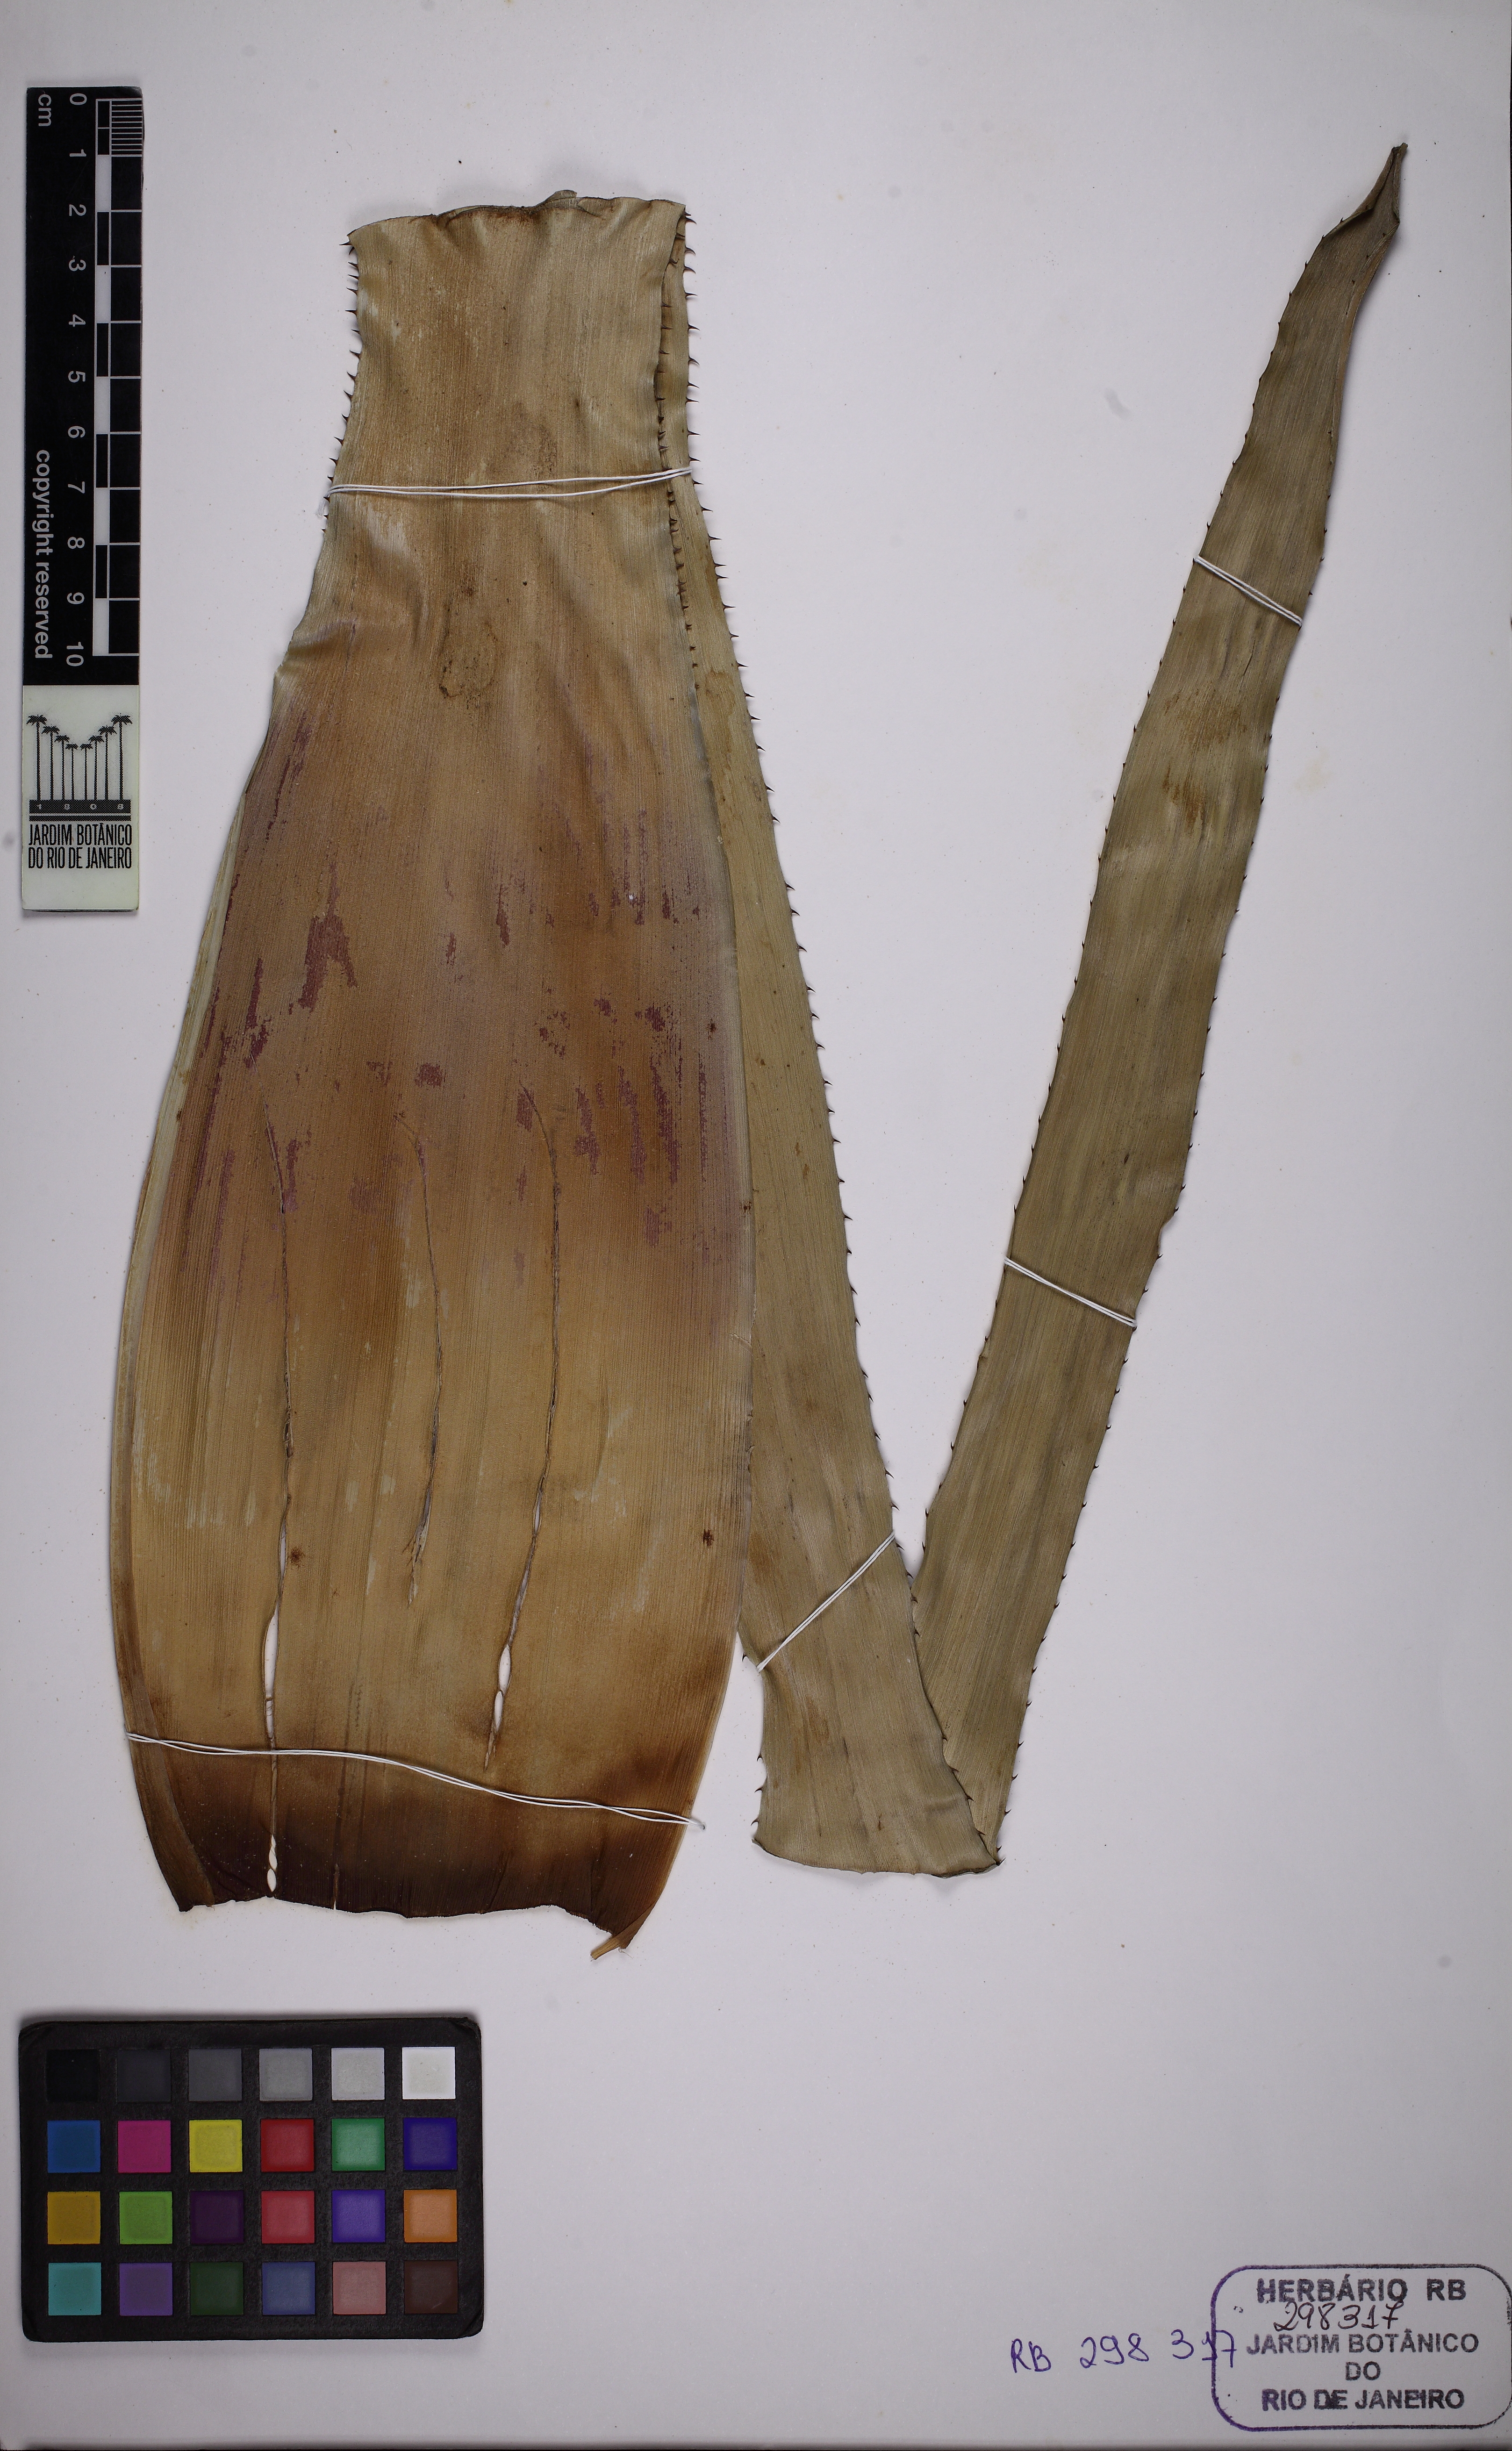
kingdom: Plantae
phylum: Tracheophyta
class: Liliopsida
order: Poales
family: Bromeliaceae
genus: Aechmea
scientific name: Aechmea pineliana
